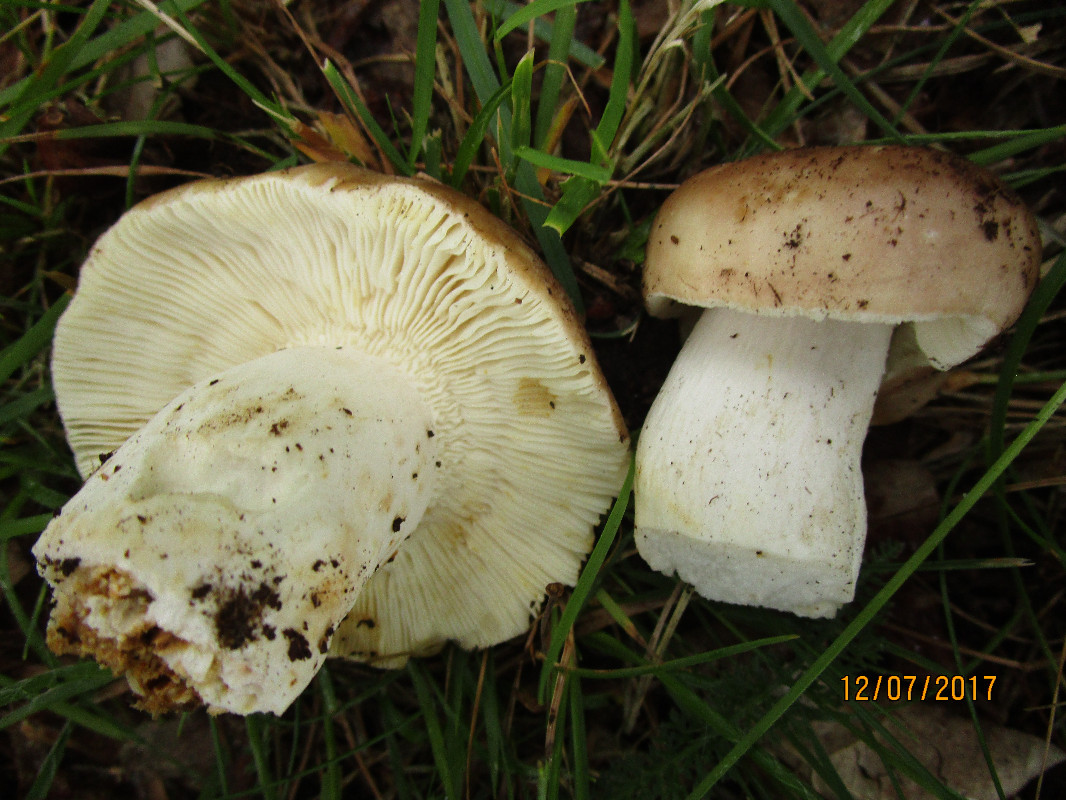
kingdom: Fungi
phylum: Basidiomycota
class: Agaricomycetes
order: Russulales
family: Russulaceae
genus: Russula
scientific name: Russula vesca
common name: spiselig skørhat
